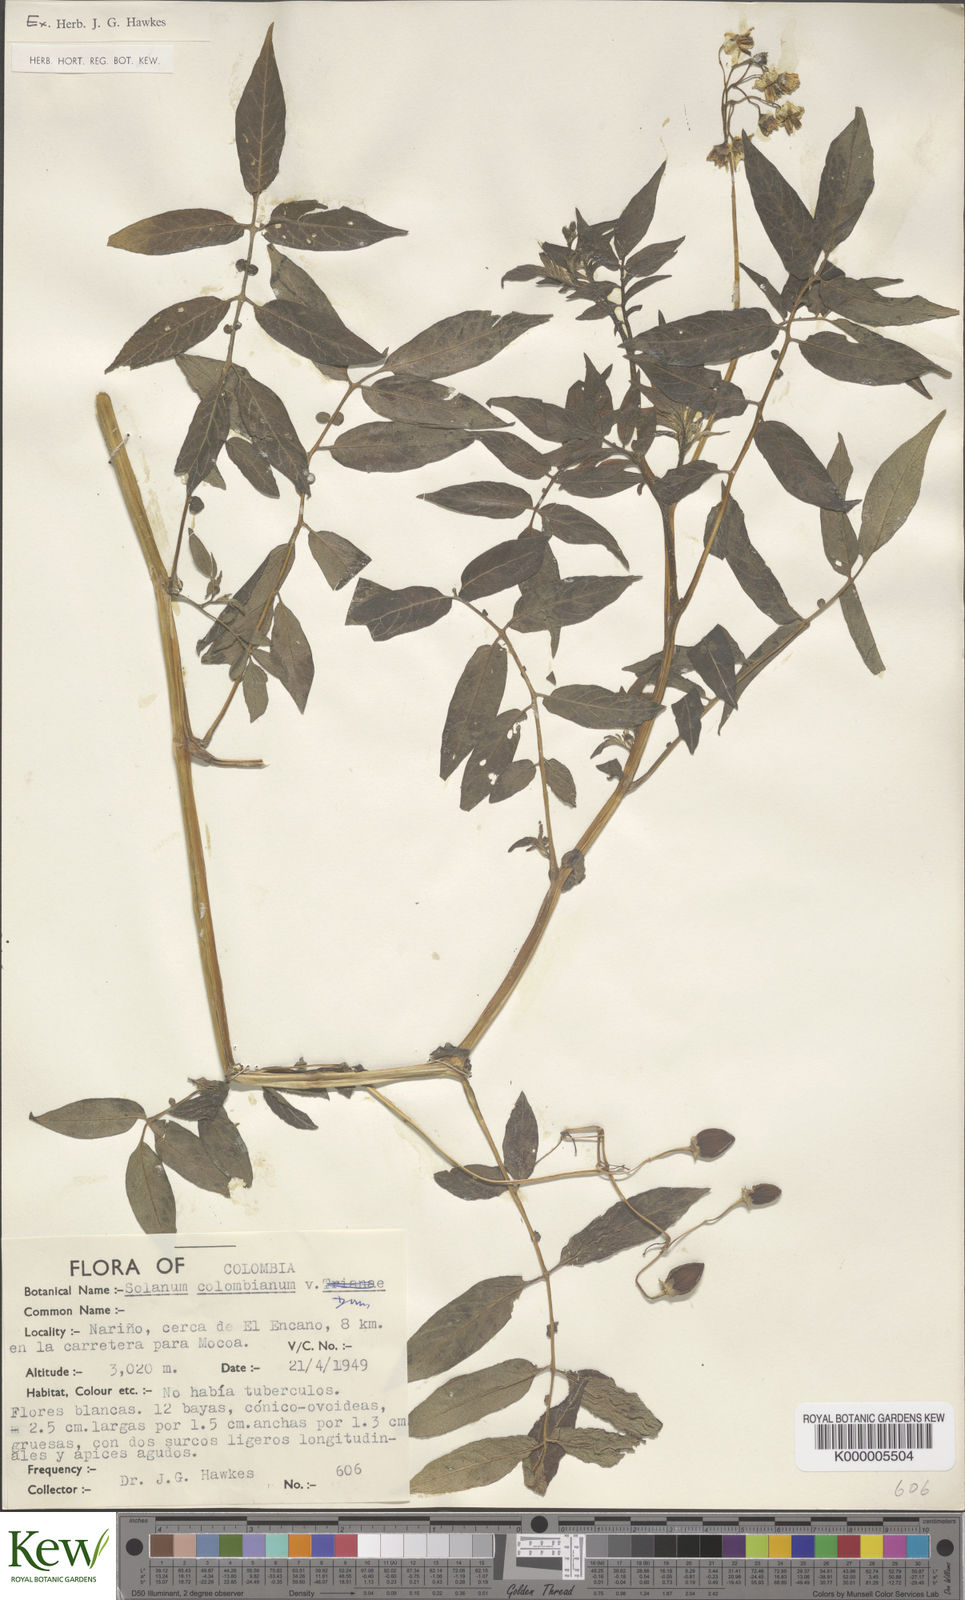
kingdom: Plantae
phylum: Tracheophyta
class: Magnoliopsida
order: Solanales
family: Solanaceae
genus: Solanum
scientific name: Solanum colombianum
